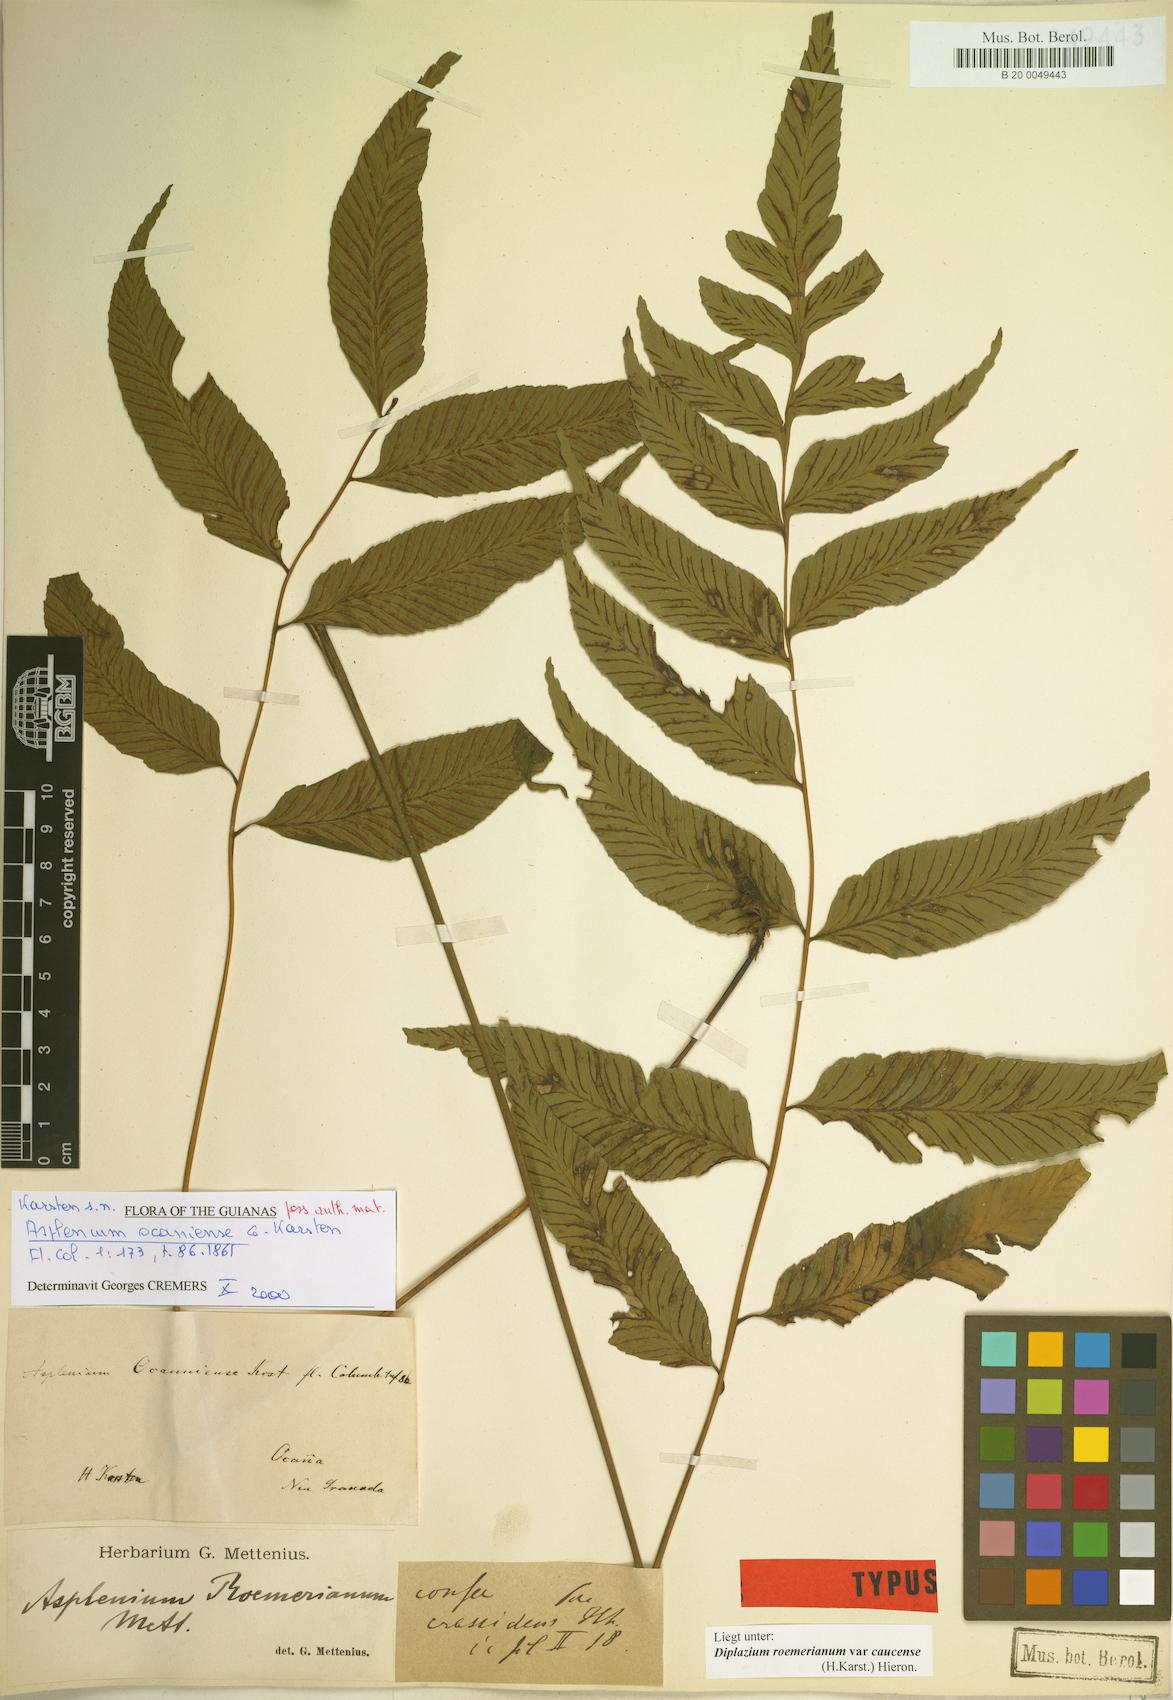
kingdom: Plantae
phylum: Tracheophyta
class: Polypodiopsida
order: Polypodiales
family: Athyriaceae
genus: Diplazium
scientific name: Diplazium roemerianum
